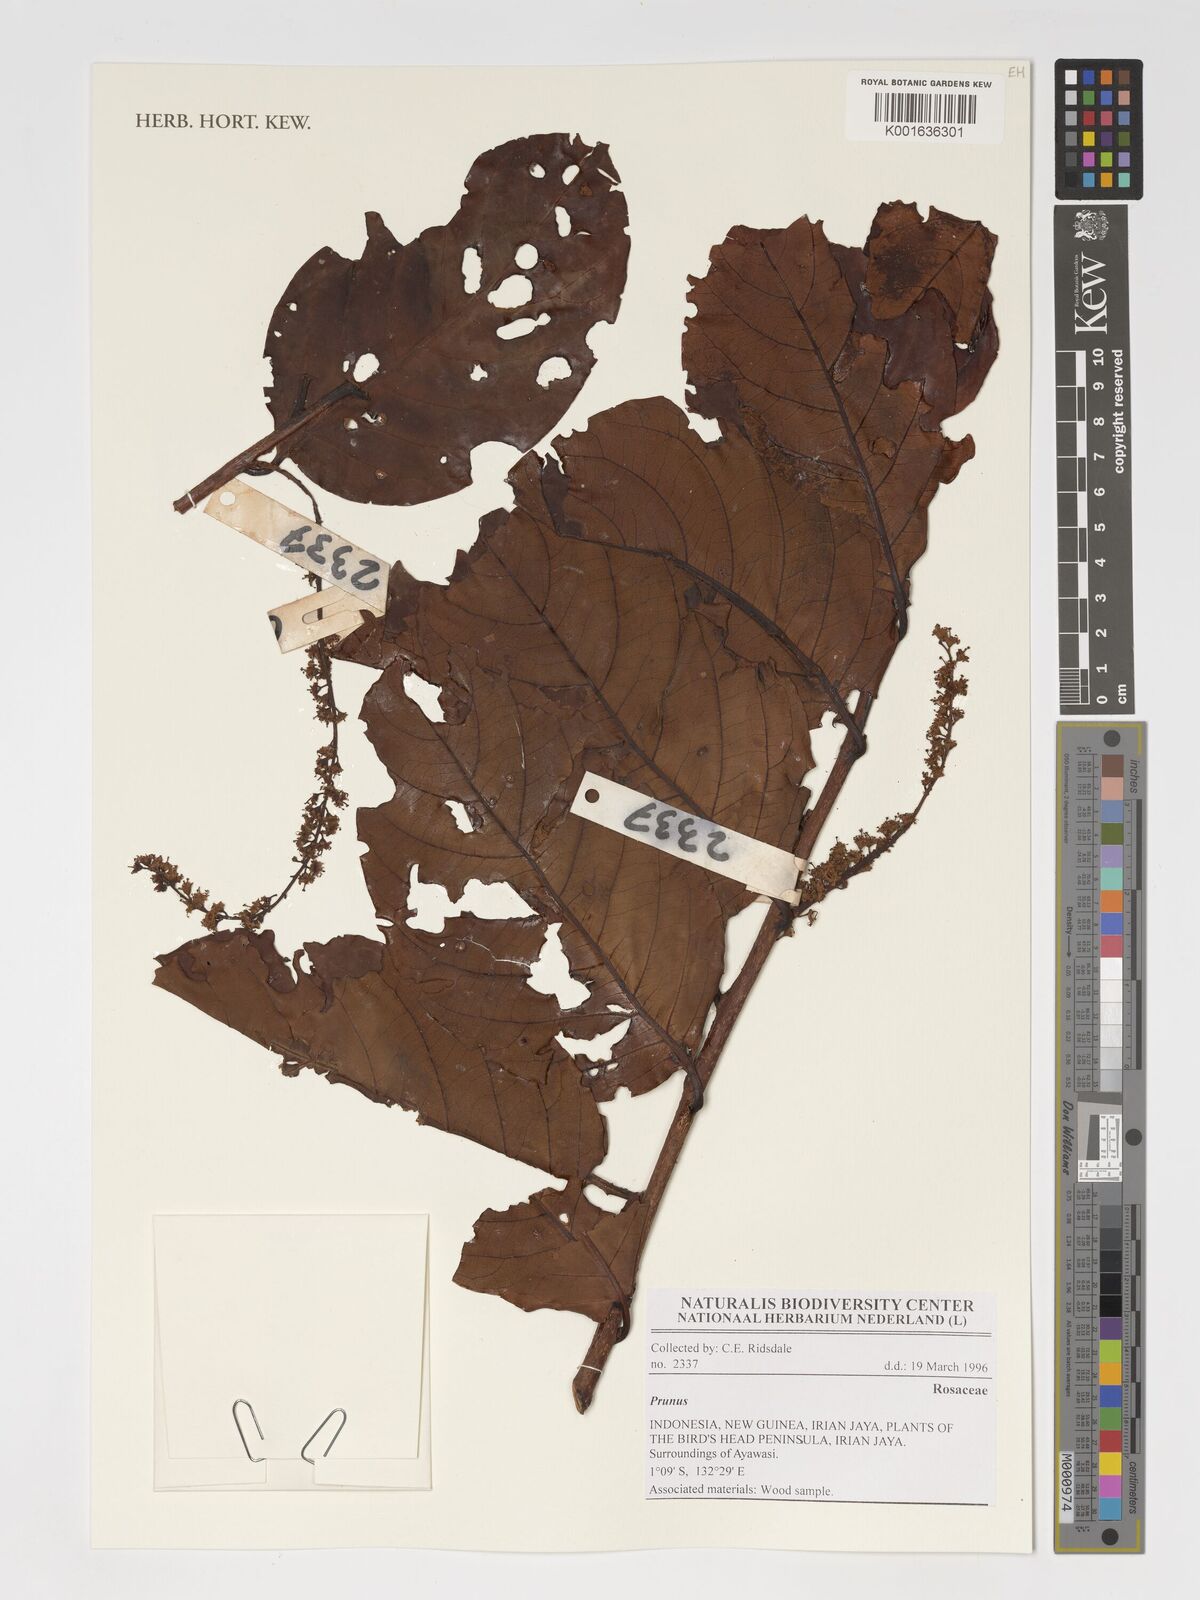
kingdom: Plantae
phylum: Tracheophyta
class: Magnoliopsida
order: Rosales
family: Rosaceae
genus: Prunus
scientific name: Prunus
